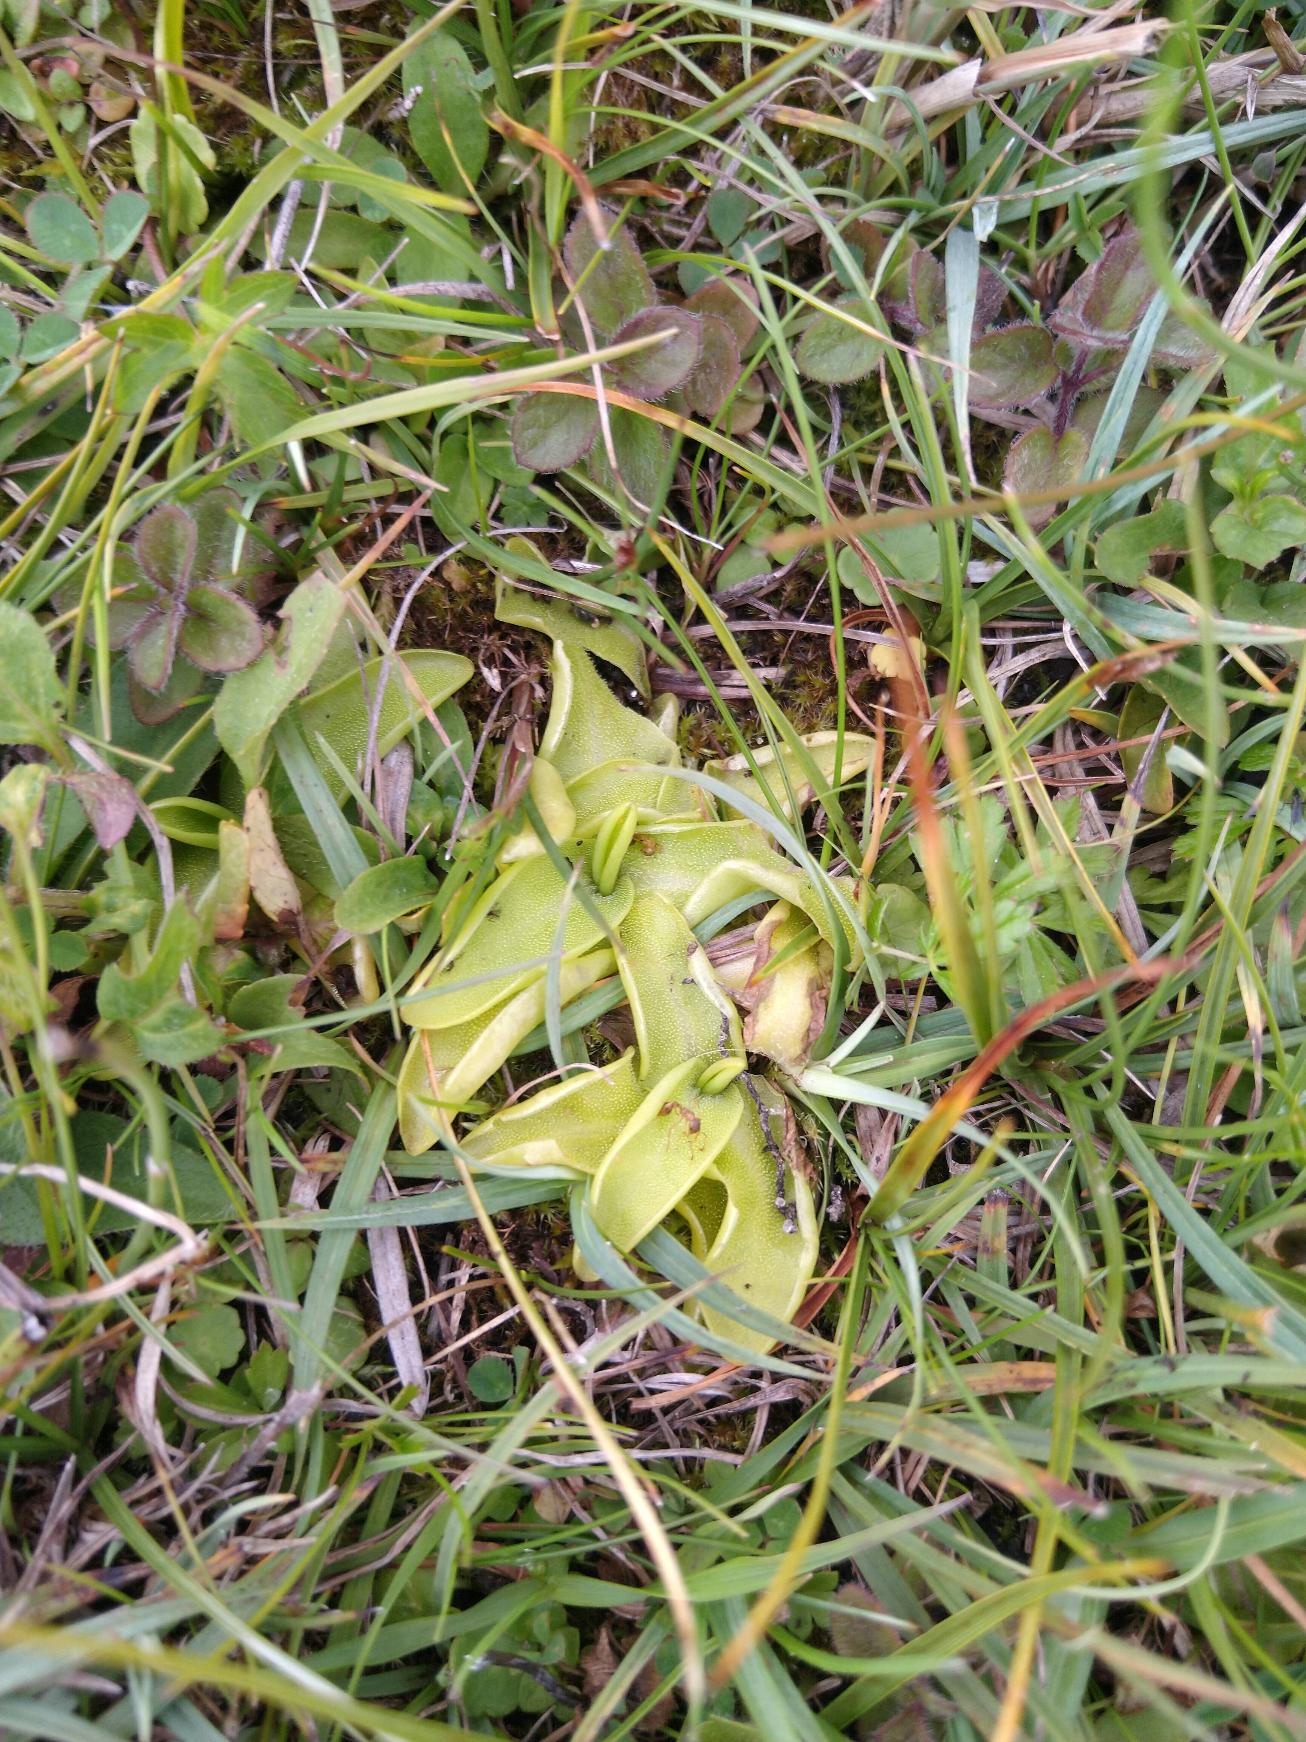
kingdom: Plantae
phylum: Tracheophyta
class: Magnoliopsida
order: Lamiales
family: Lentibulariaceae
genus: Pinguicula
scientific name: Pinguicula vulgaris
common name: Vibefedt
